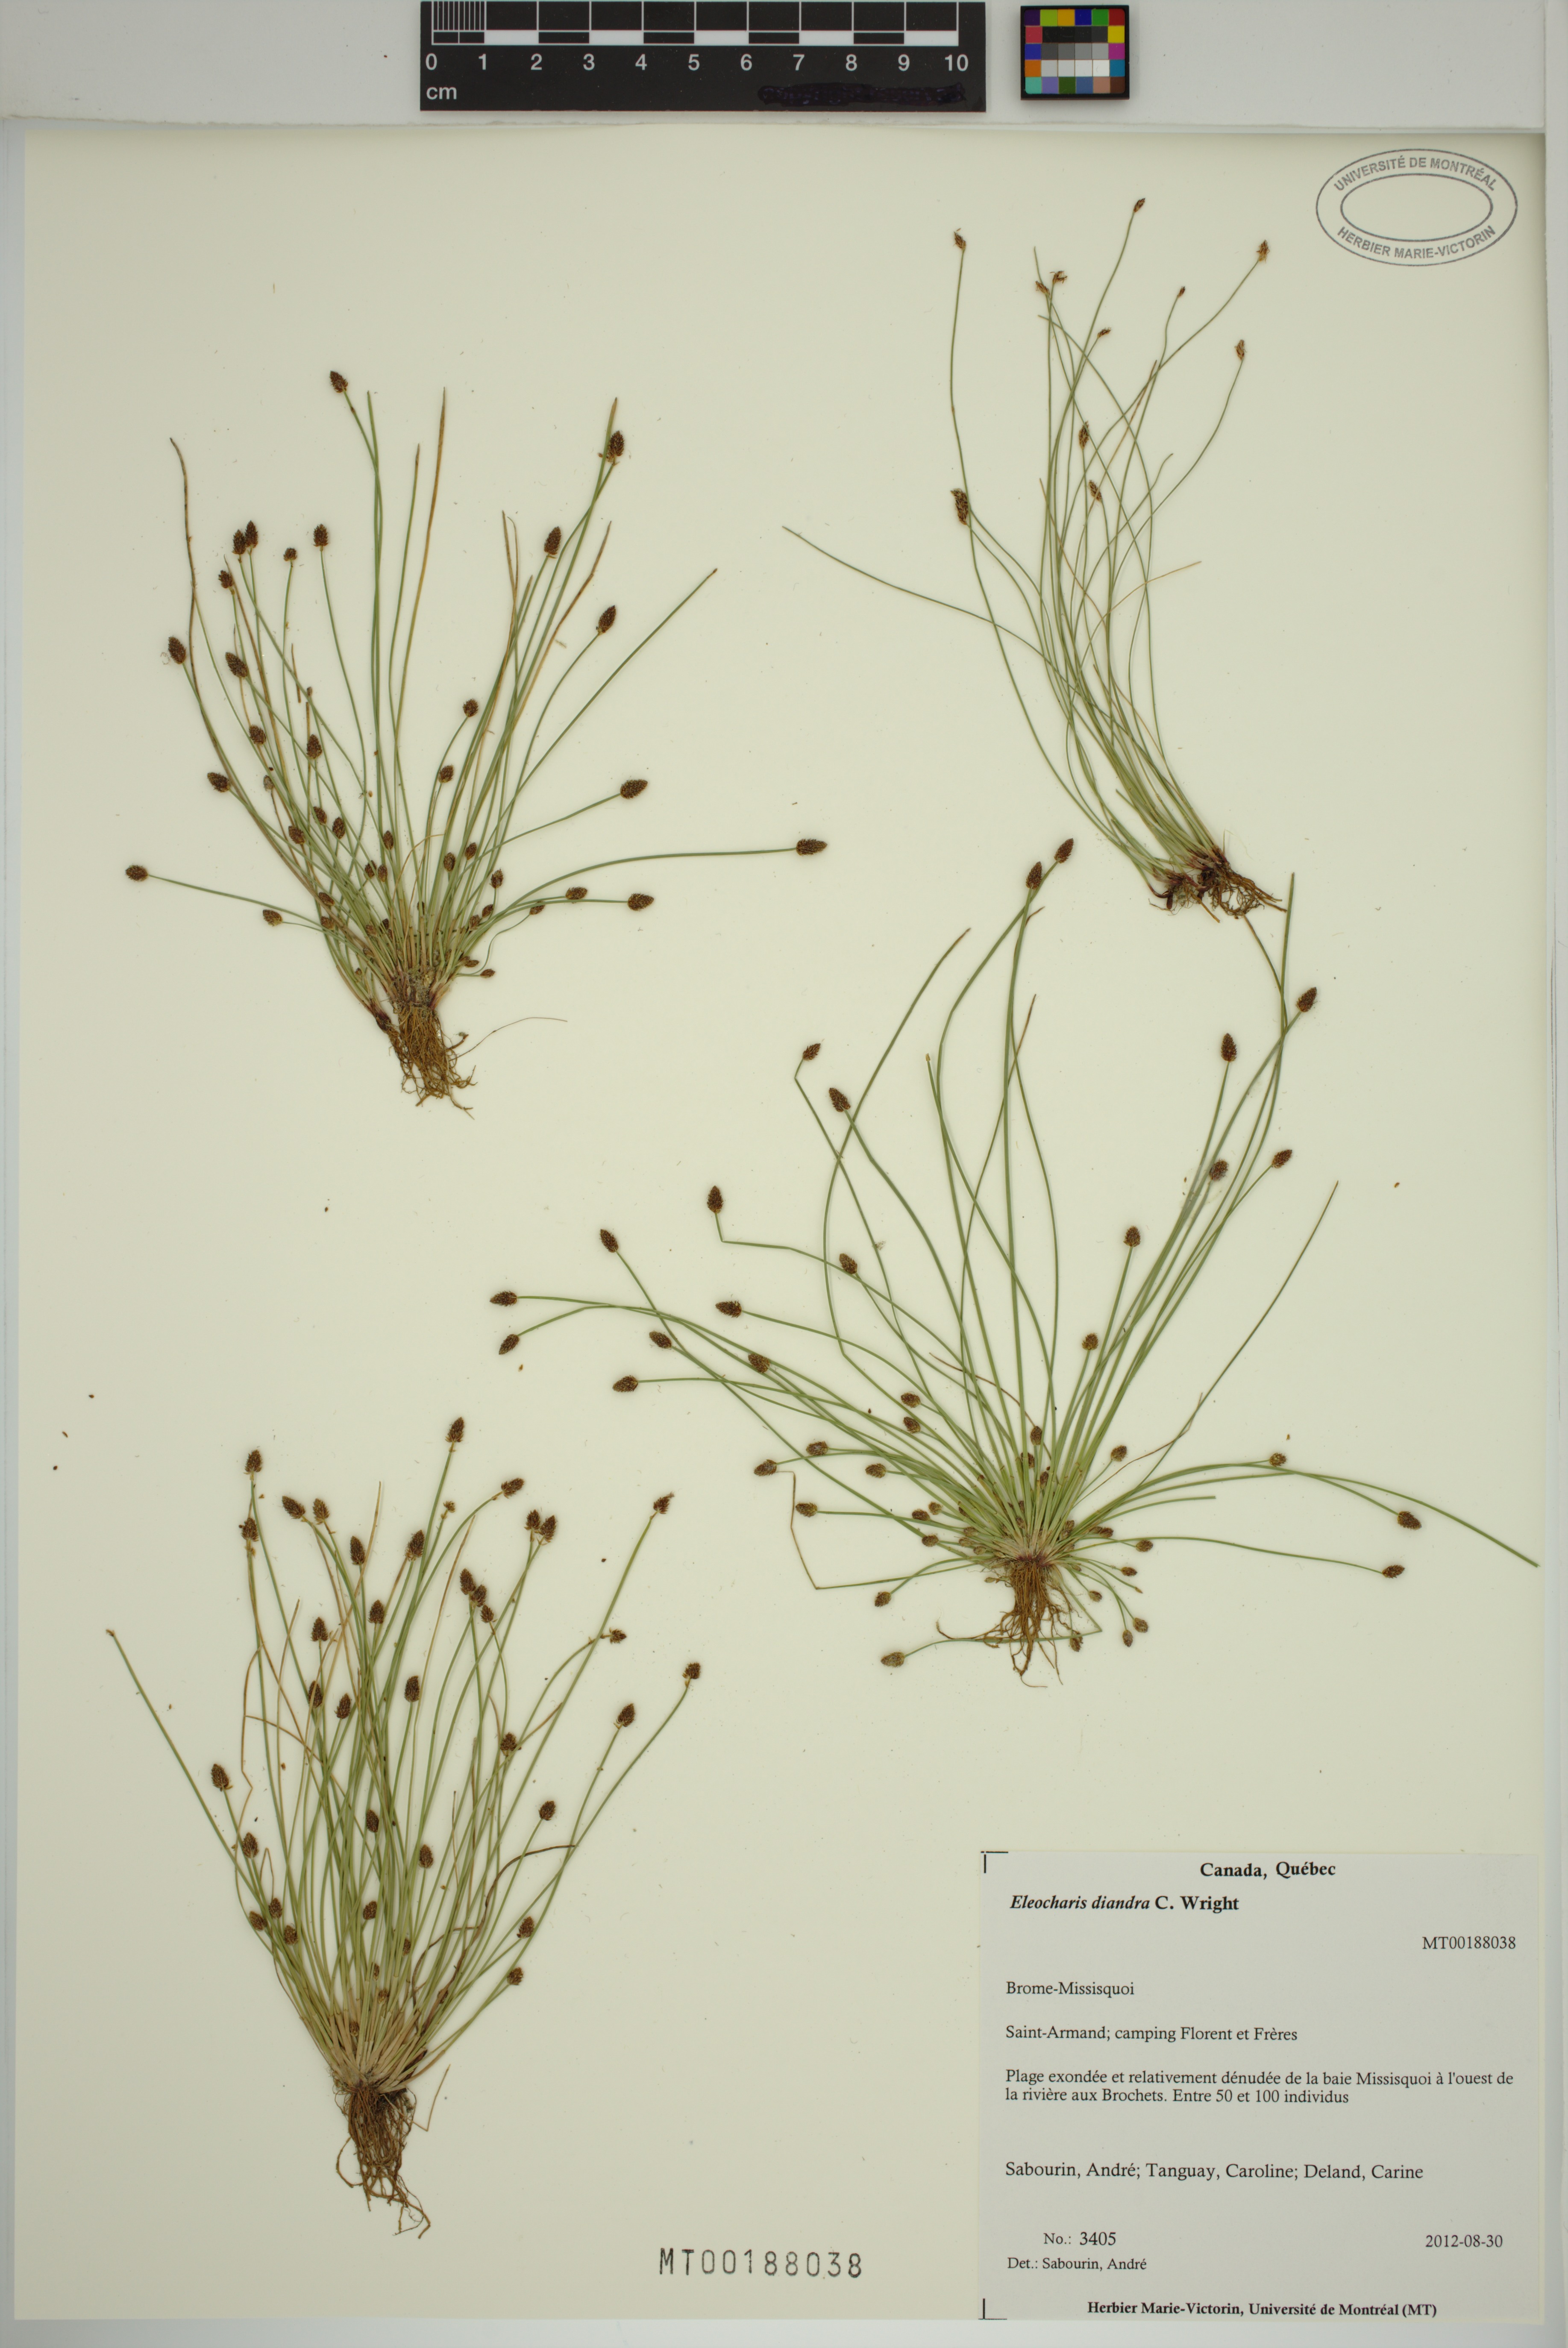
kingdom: Plantae
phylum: Tracheophyta
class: Liliopsida
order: Poales
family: Cyperaceae
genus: Eleocharis
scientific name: Eleocharis diandra
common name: Wright's spikerush
